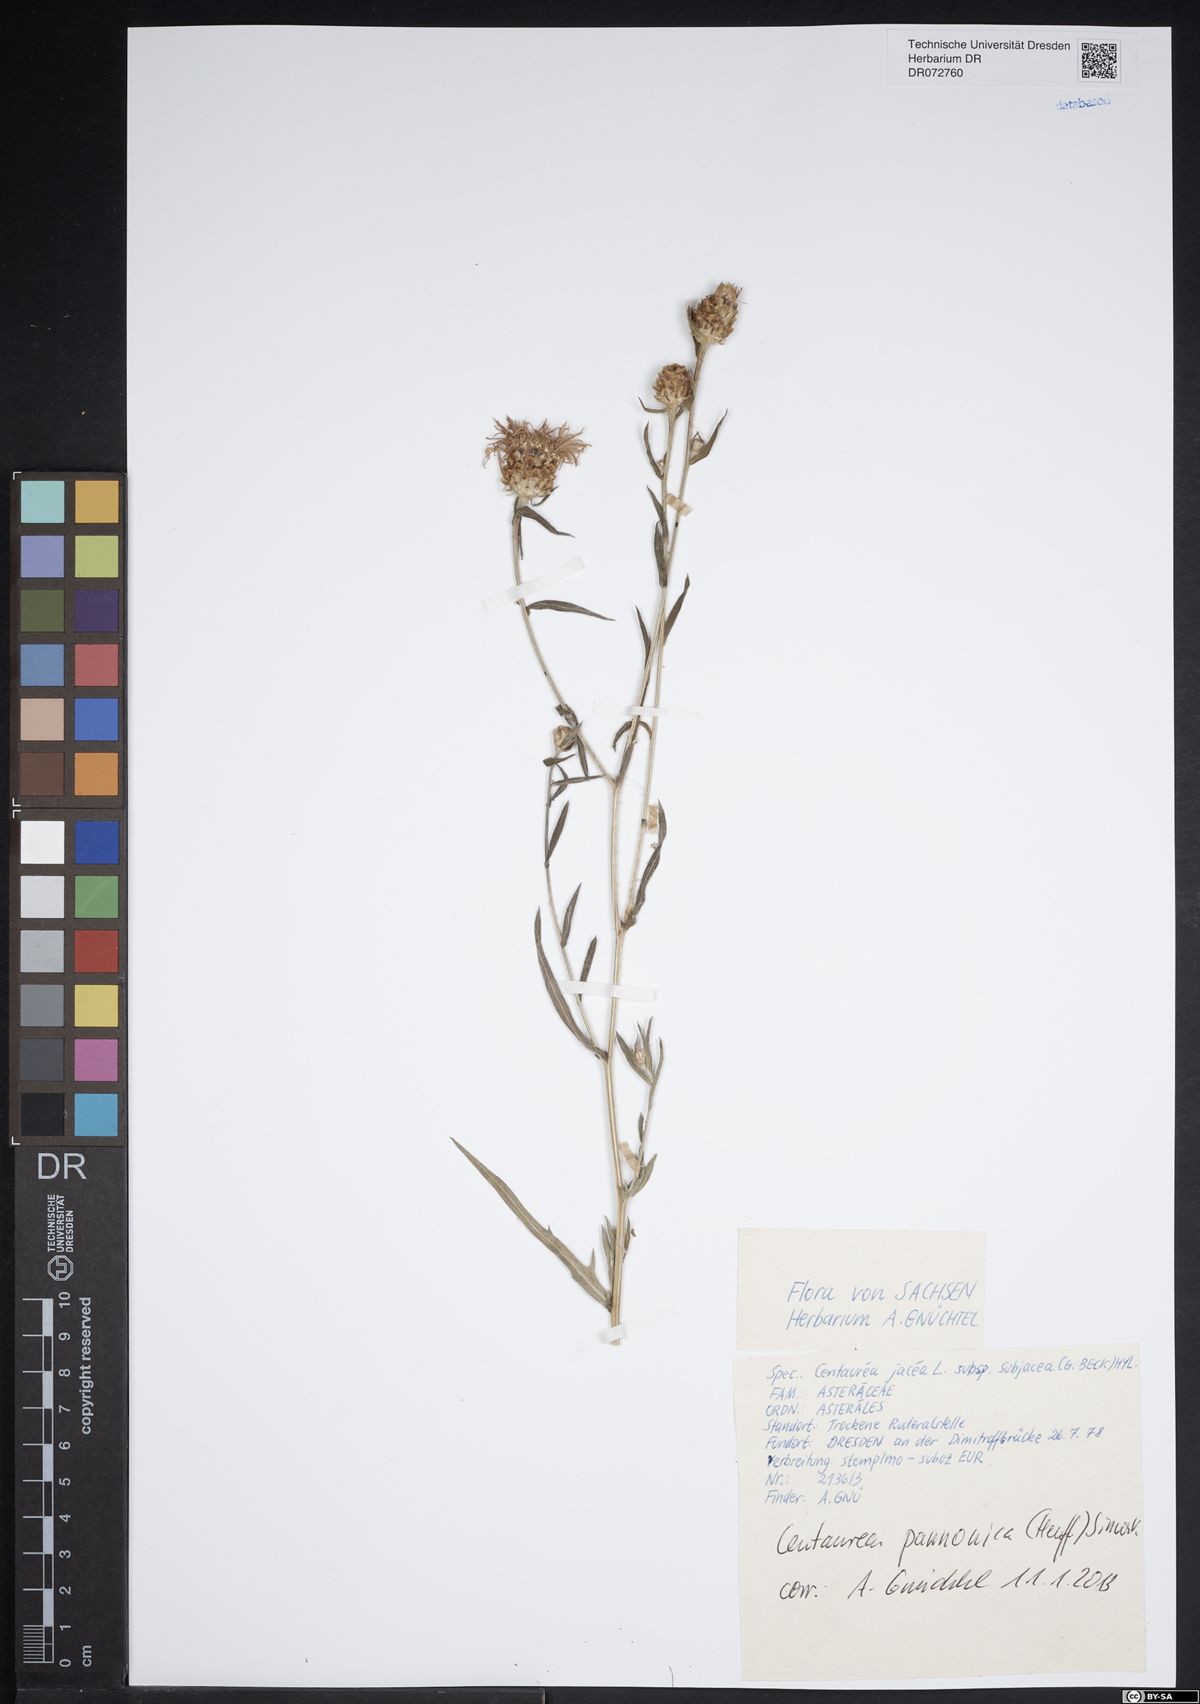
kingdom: Plantae
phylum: Tracheophyta
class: Magnoliopsida
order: Asterales
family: Asteraceae
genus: Centaurea
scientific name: Centaurea pannonica
